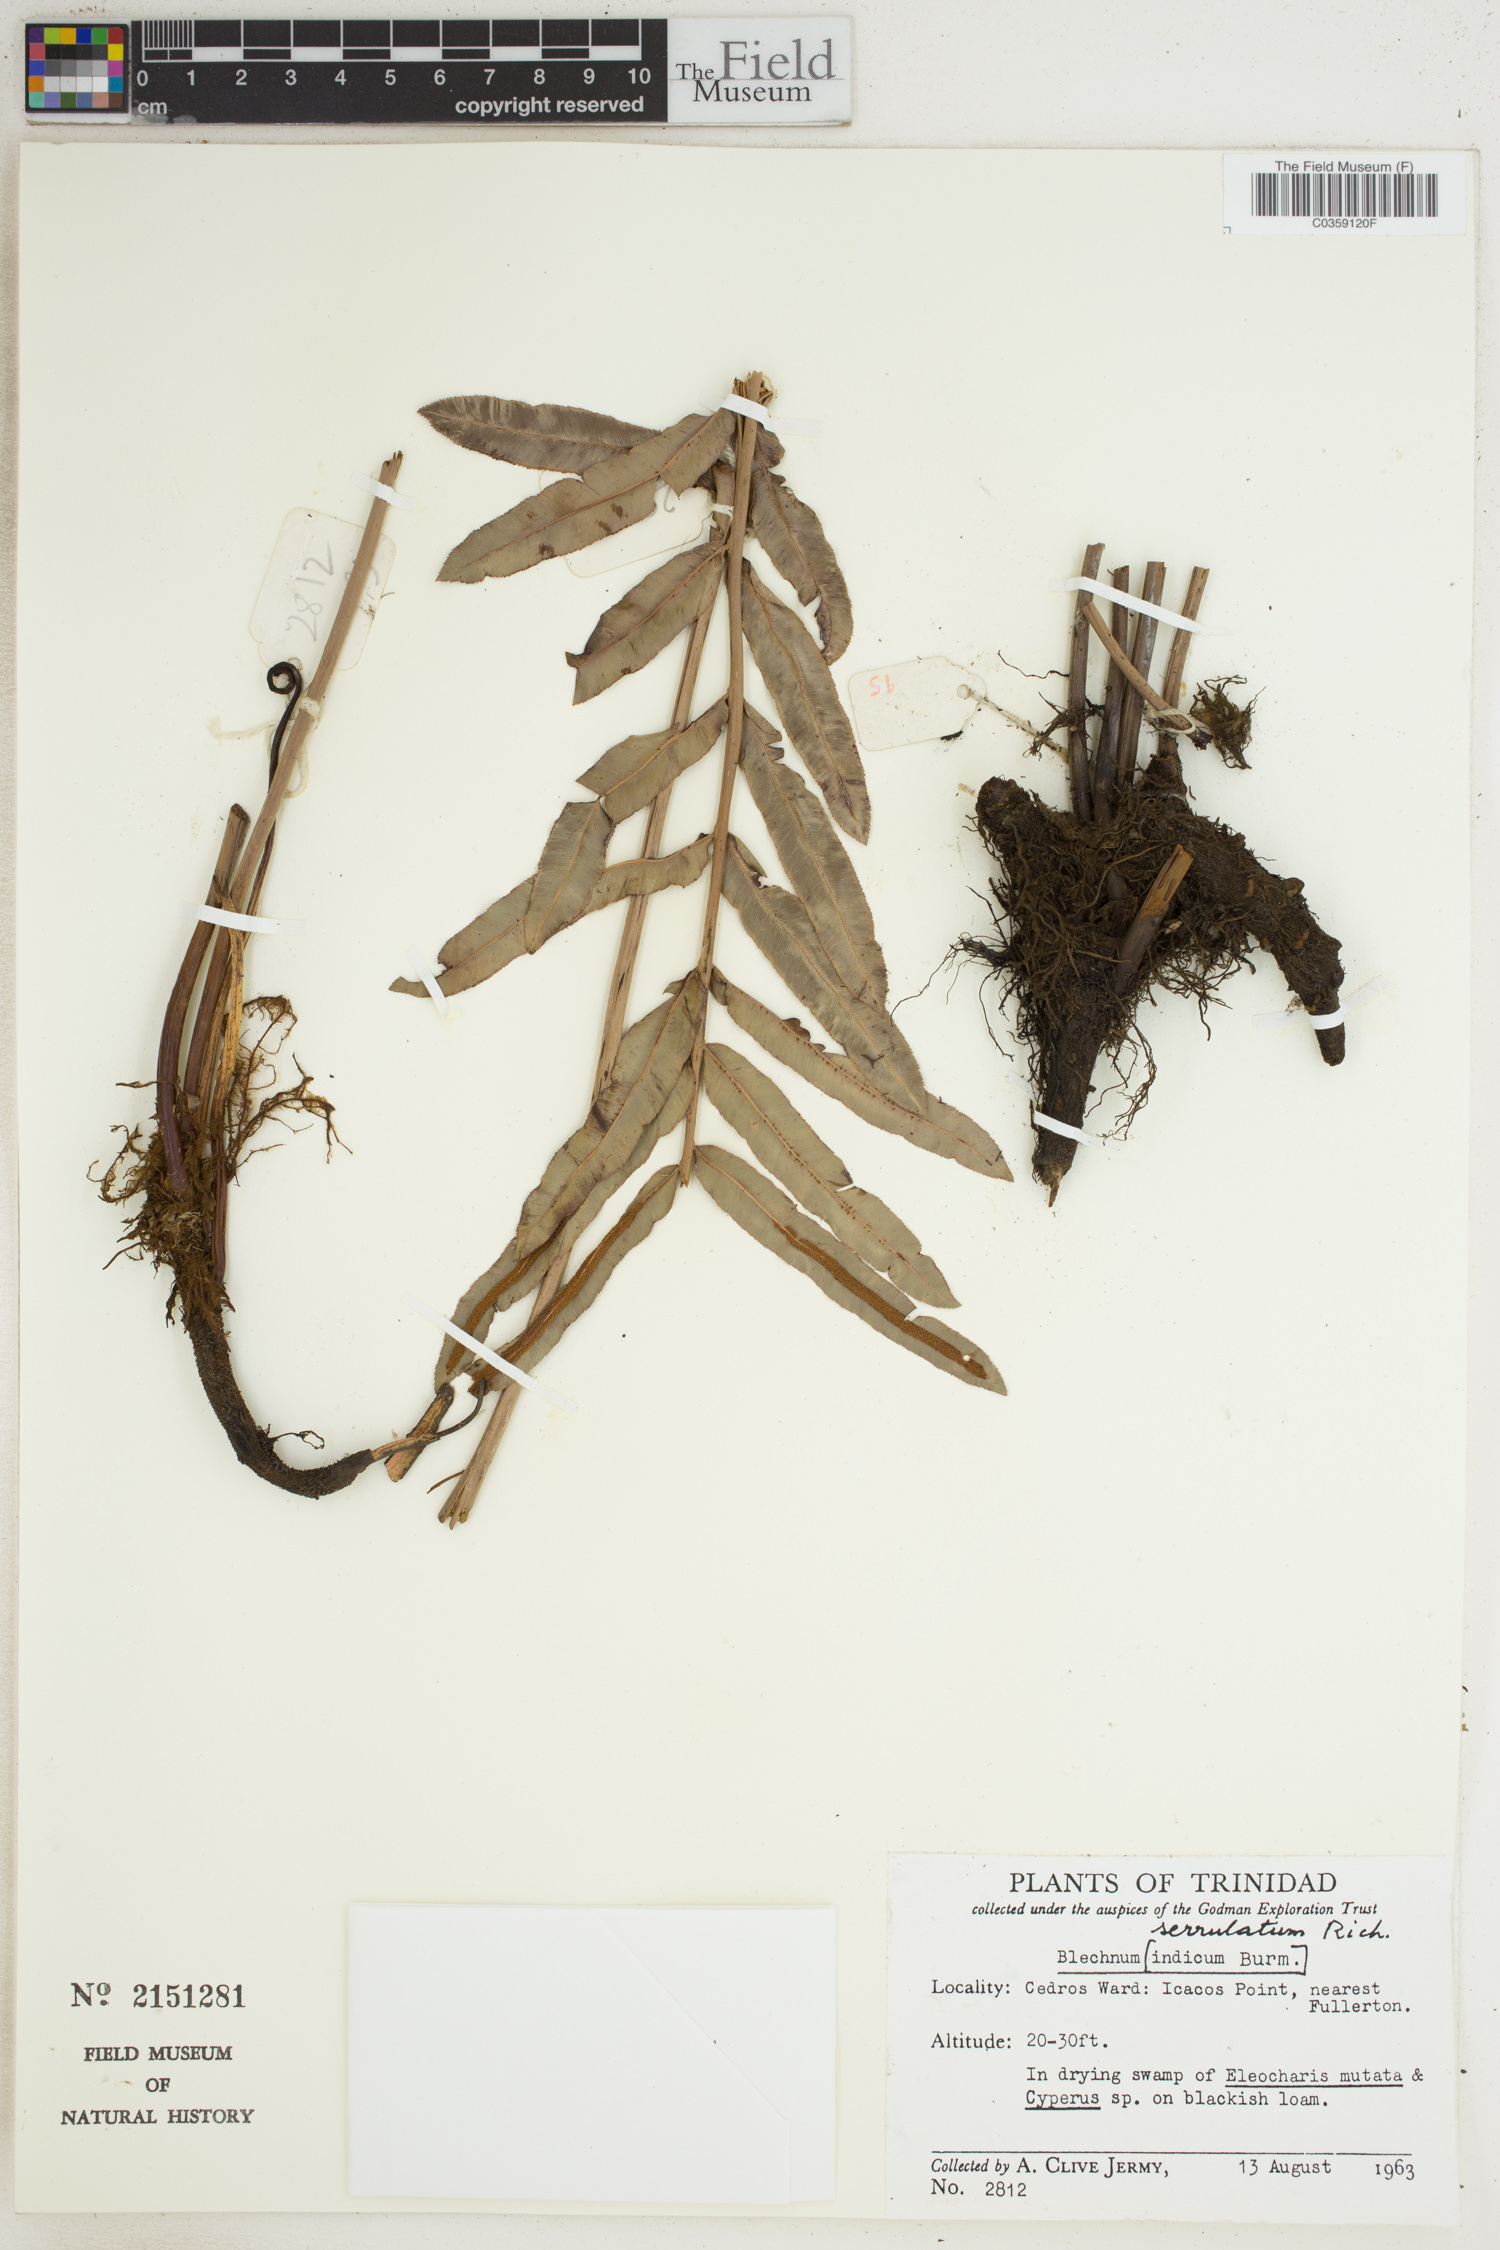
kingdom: Plantae
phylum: Tracheophyta
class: Polypodiopsida
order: Polypodiales
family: Blechnaceae
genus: Telmatoblechnum
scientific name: Telmatoblechnum serrulatum
